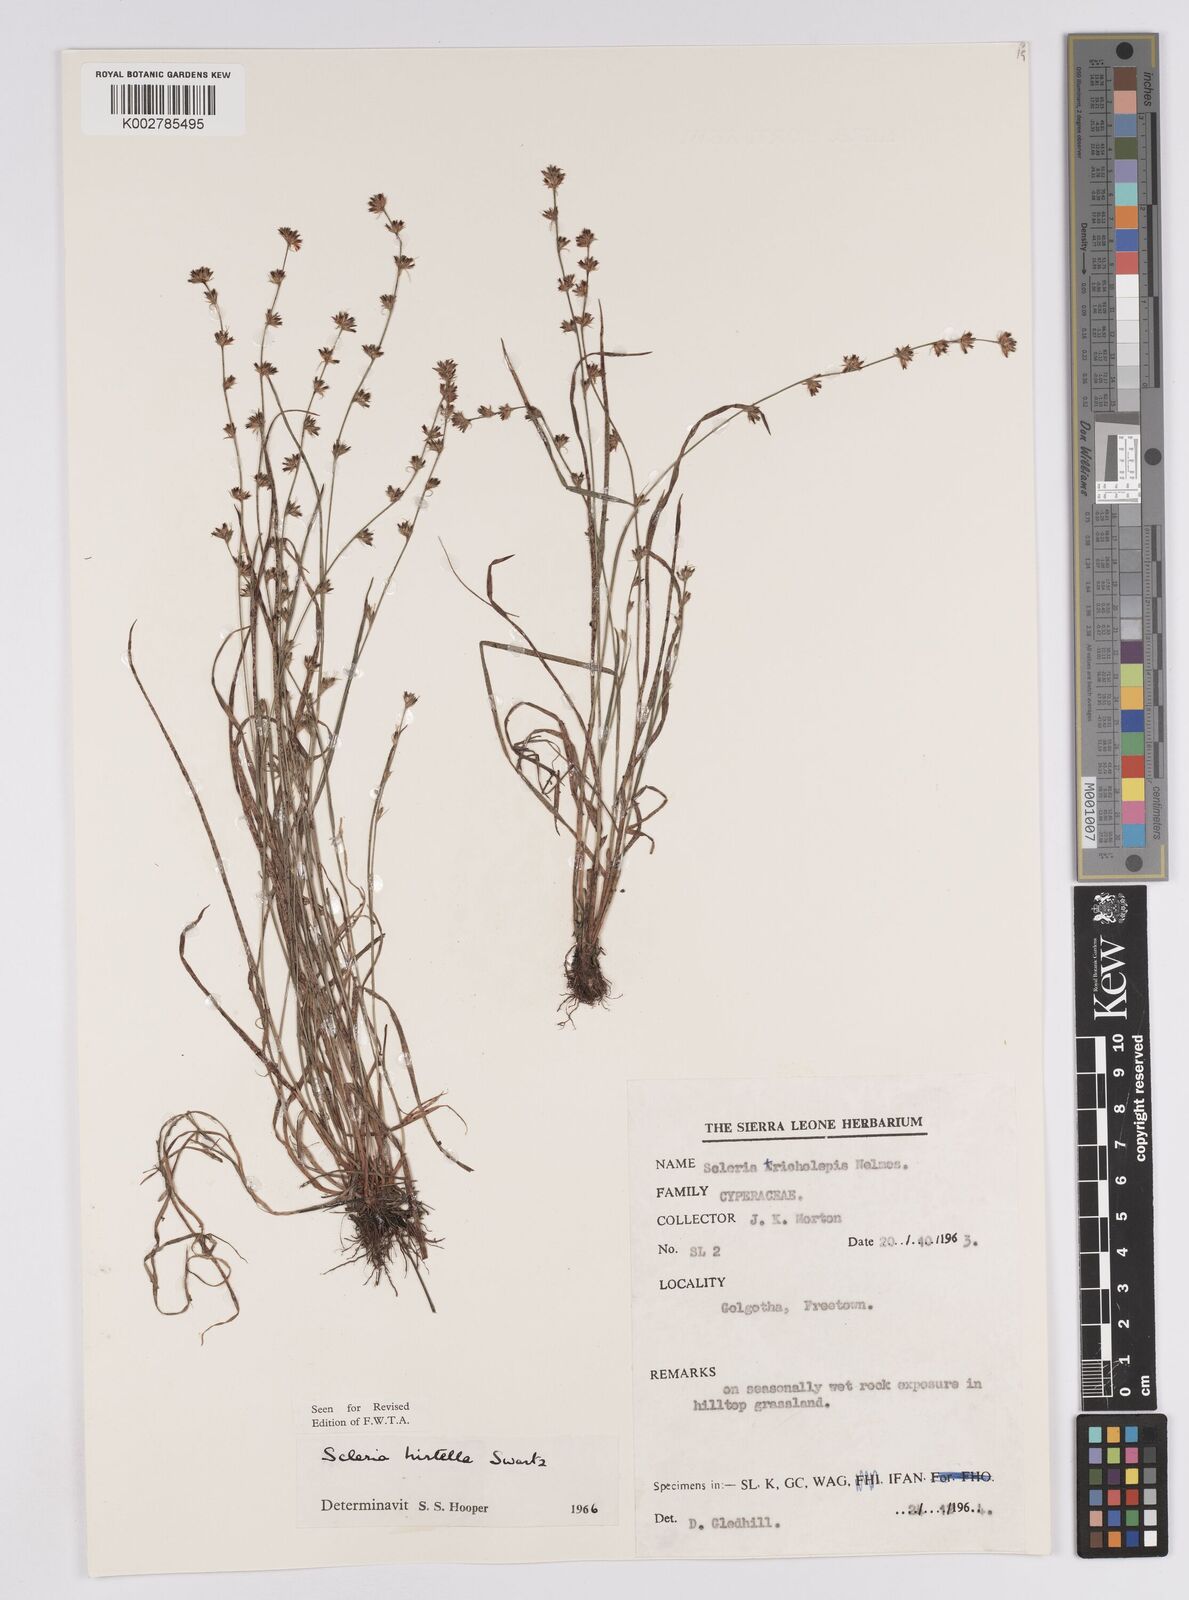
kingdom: Plantae
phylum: Tracheophyta
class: Liliopsida
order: Poales
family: Cyperaceae
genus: Scleria
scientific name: Scleria tricholepis
